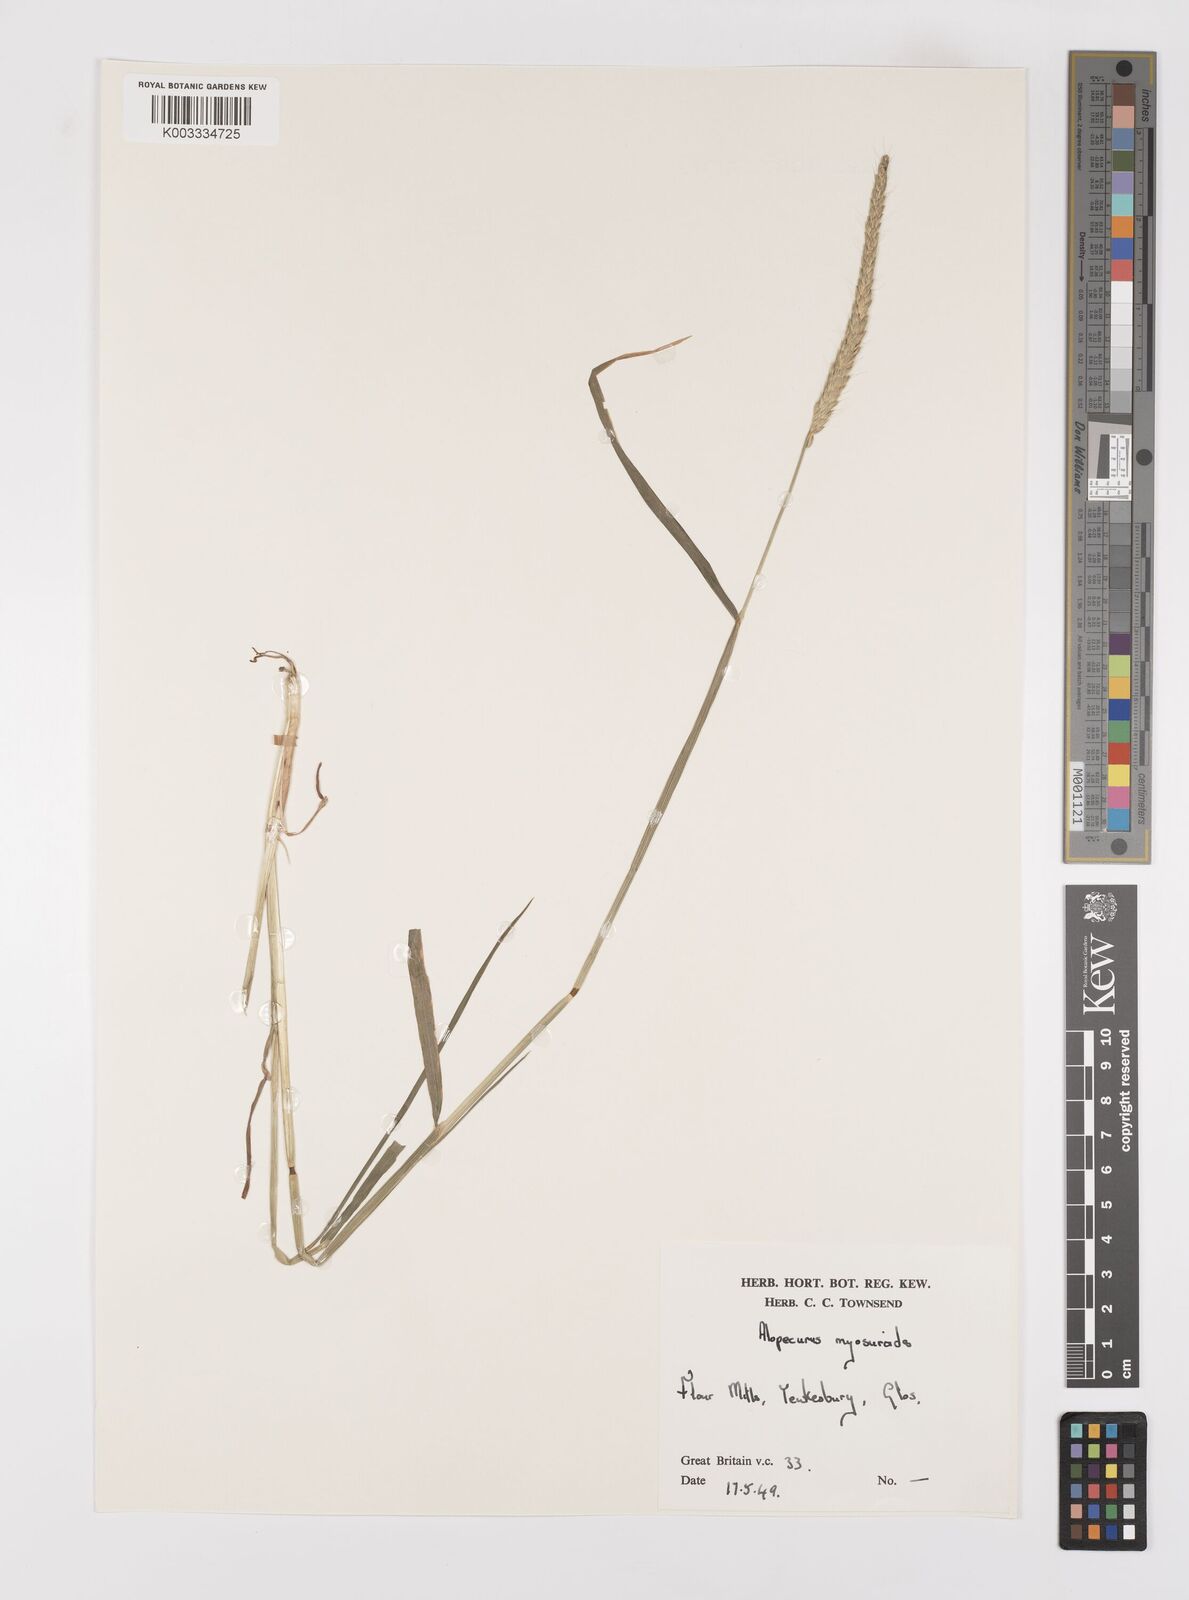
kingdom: Plantae
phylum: Tracheophyta
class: Liliopsida
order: Poales
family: Poaceae
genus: Alopecurus
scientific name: Alopecurus myosuroides
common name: Black-grass
